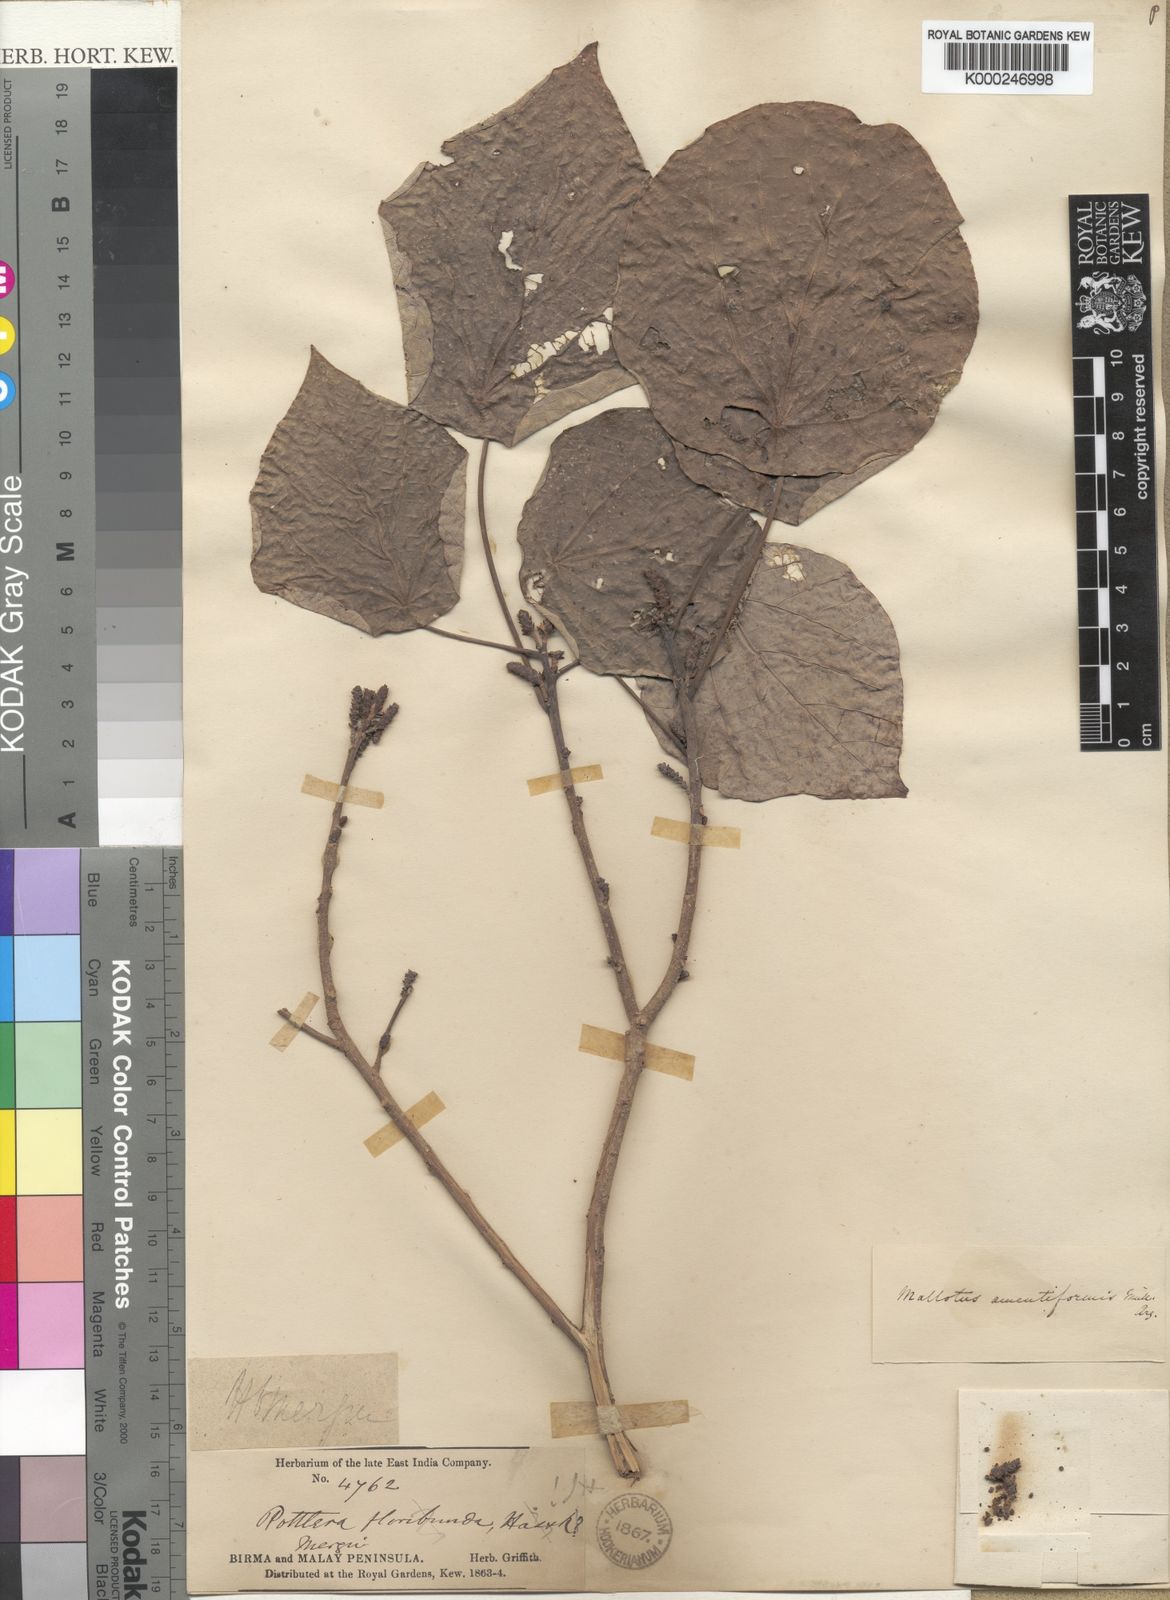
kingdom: Plantae
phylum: Tracheophyta
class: Magnoliopsida
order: Malpighiales
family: Euphorbiaceae
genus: Mallotus
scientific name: Mallotus
